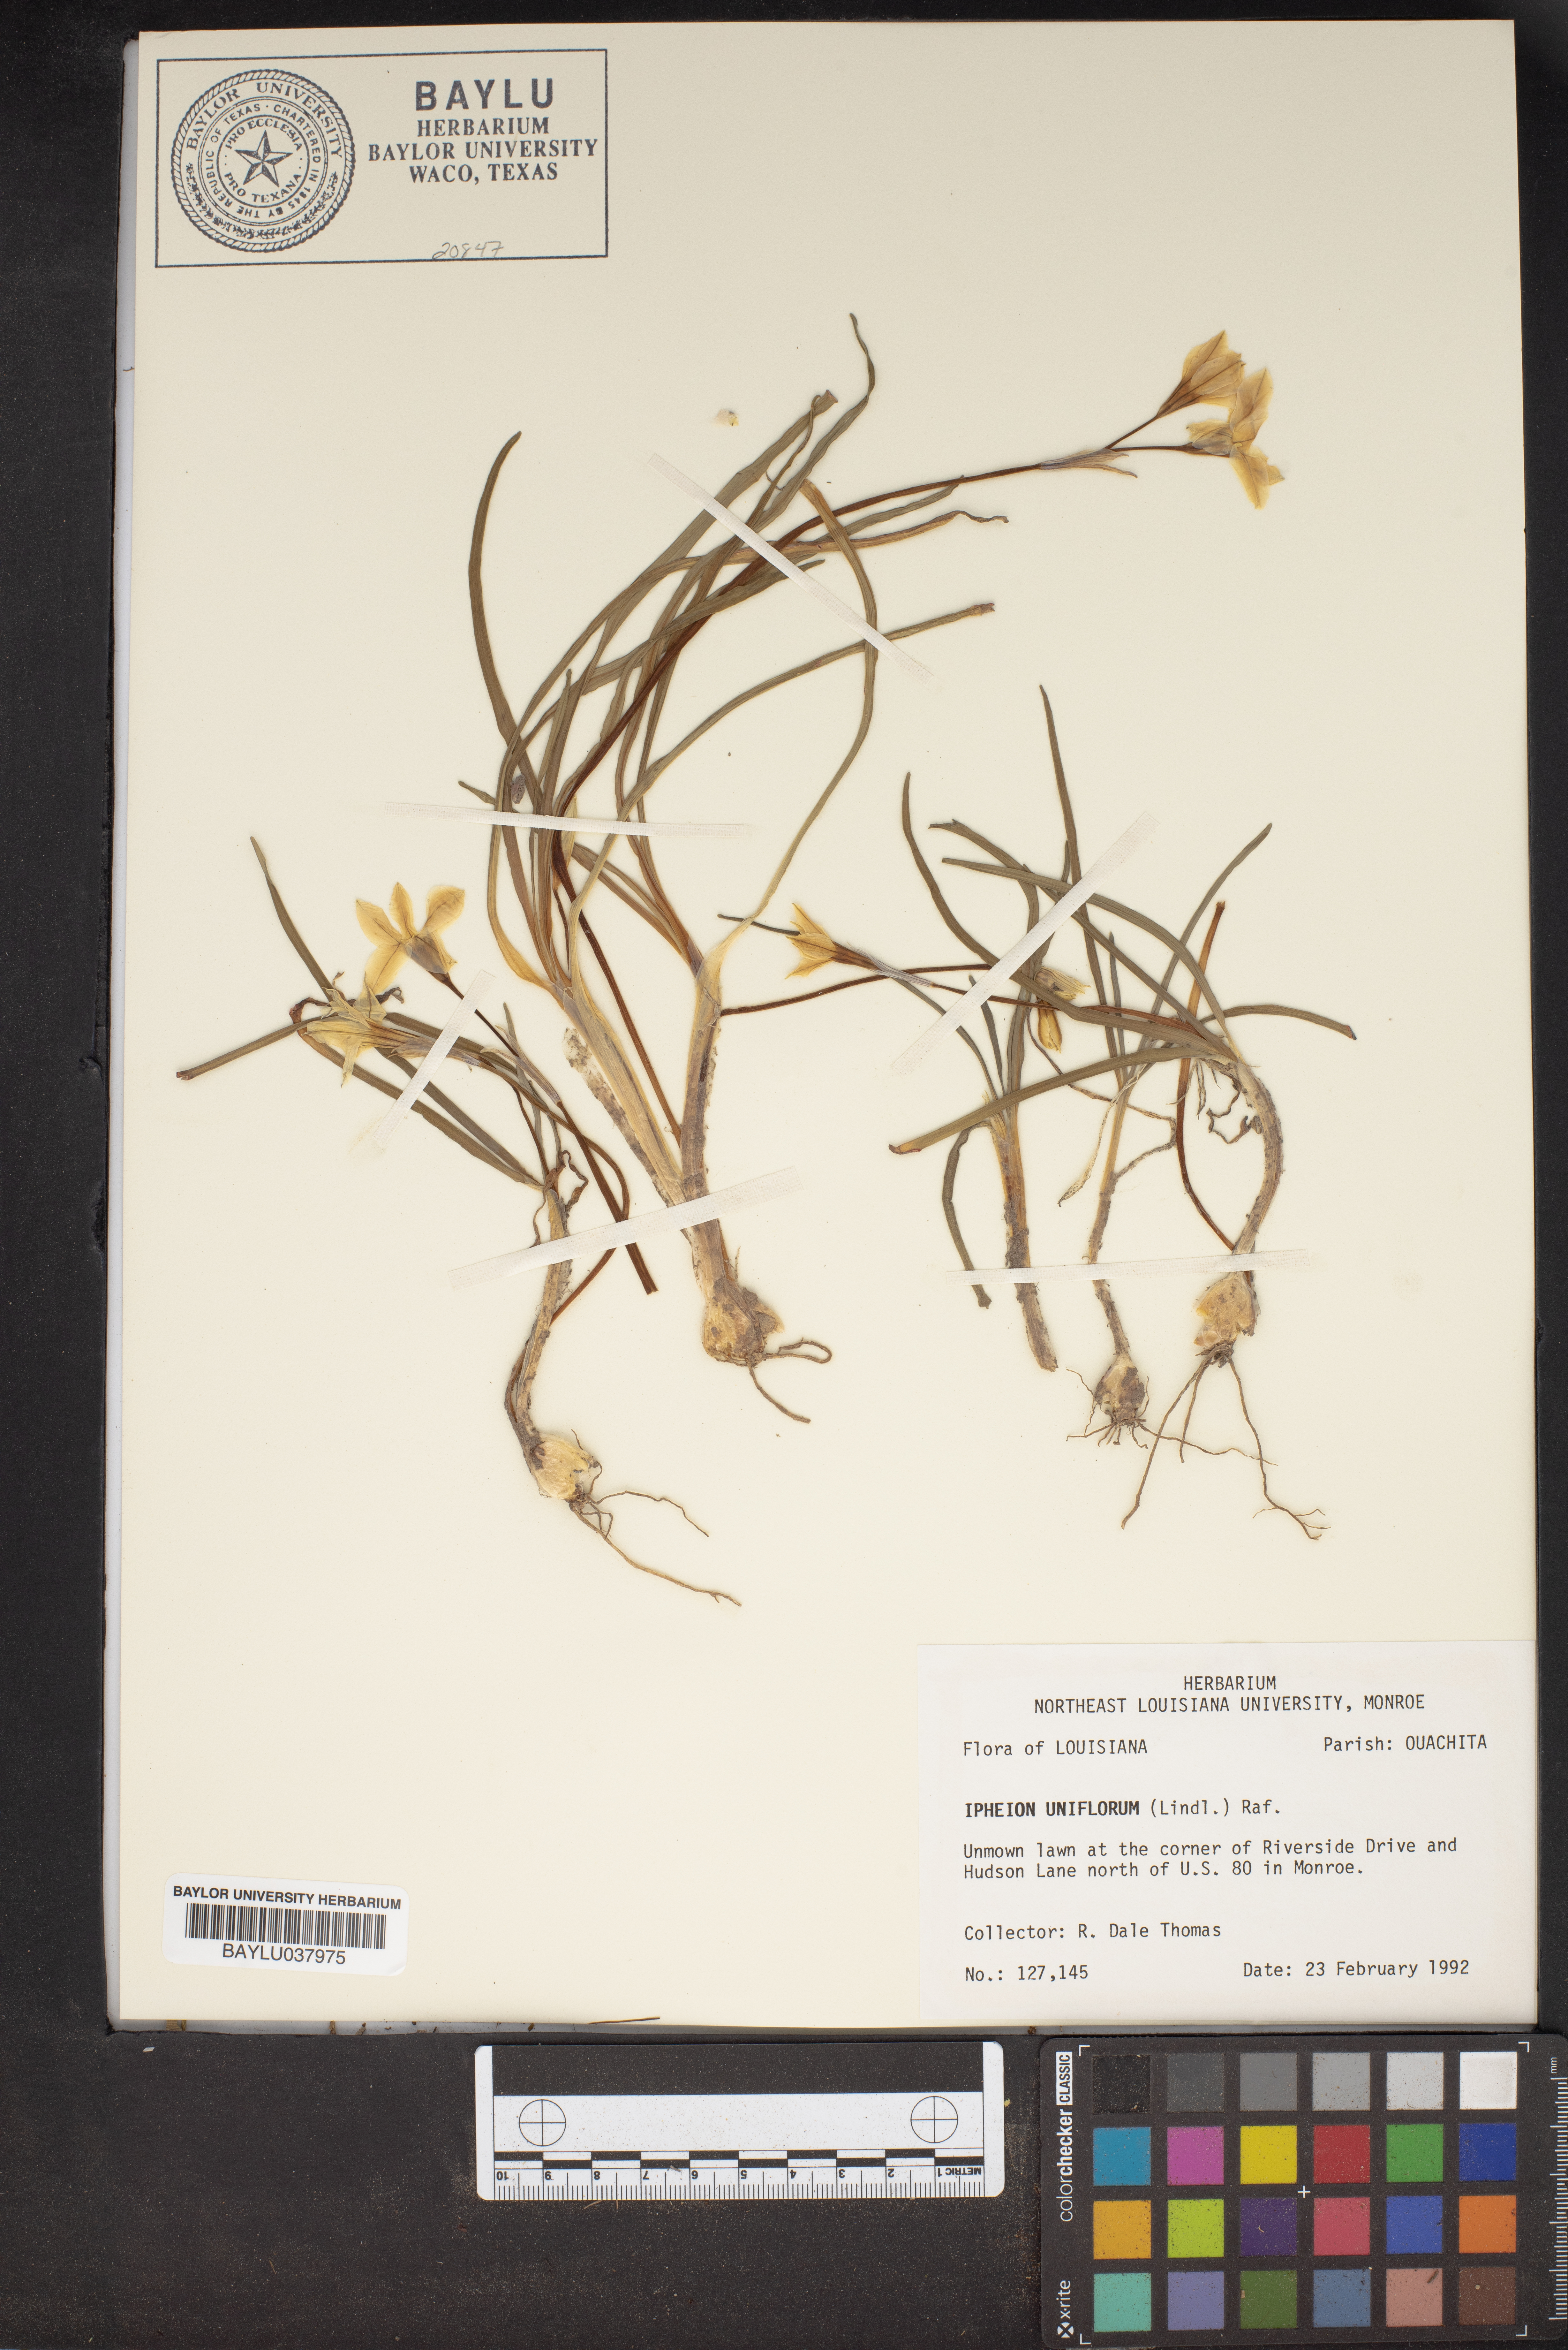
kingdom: Plantae
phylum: Tracheophyta
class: Liliopsida
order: Asparagales
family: Amaryllidaceae
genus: Ipheion
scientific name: Ipheion uniflorum
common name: Spring starflower
